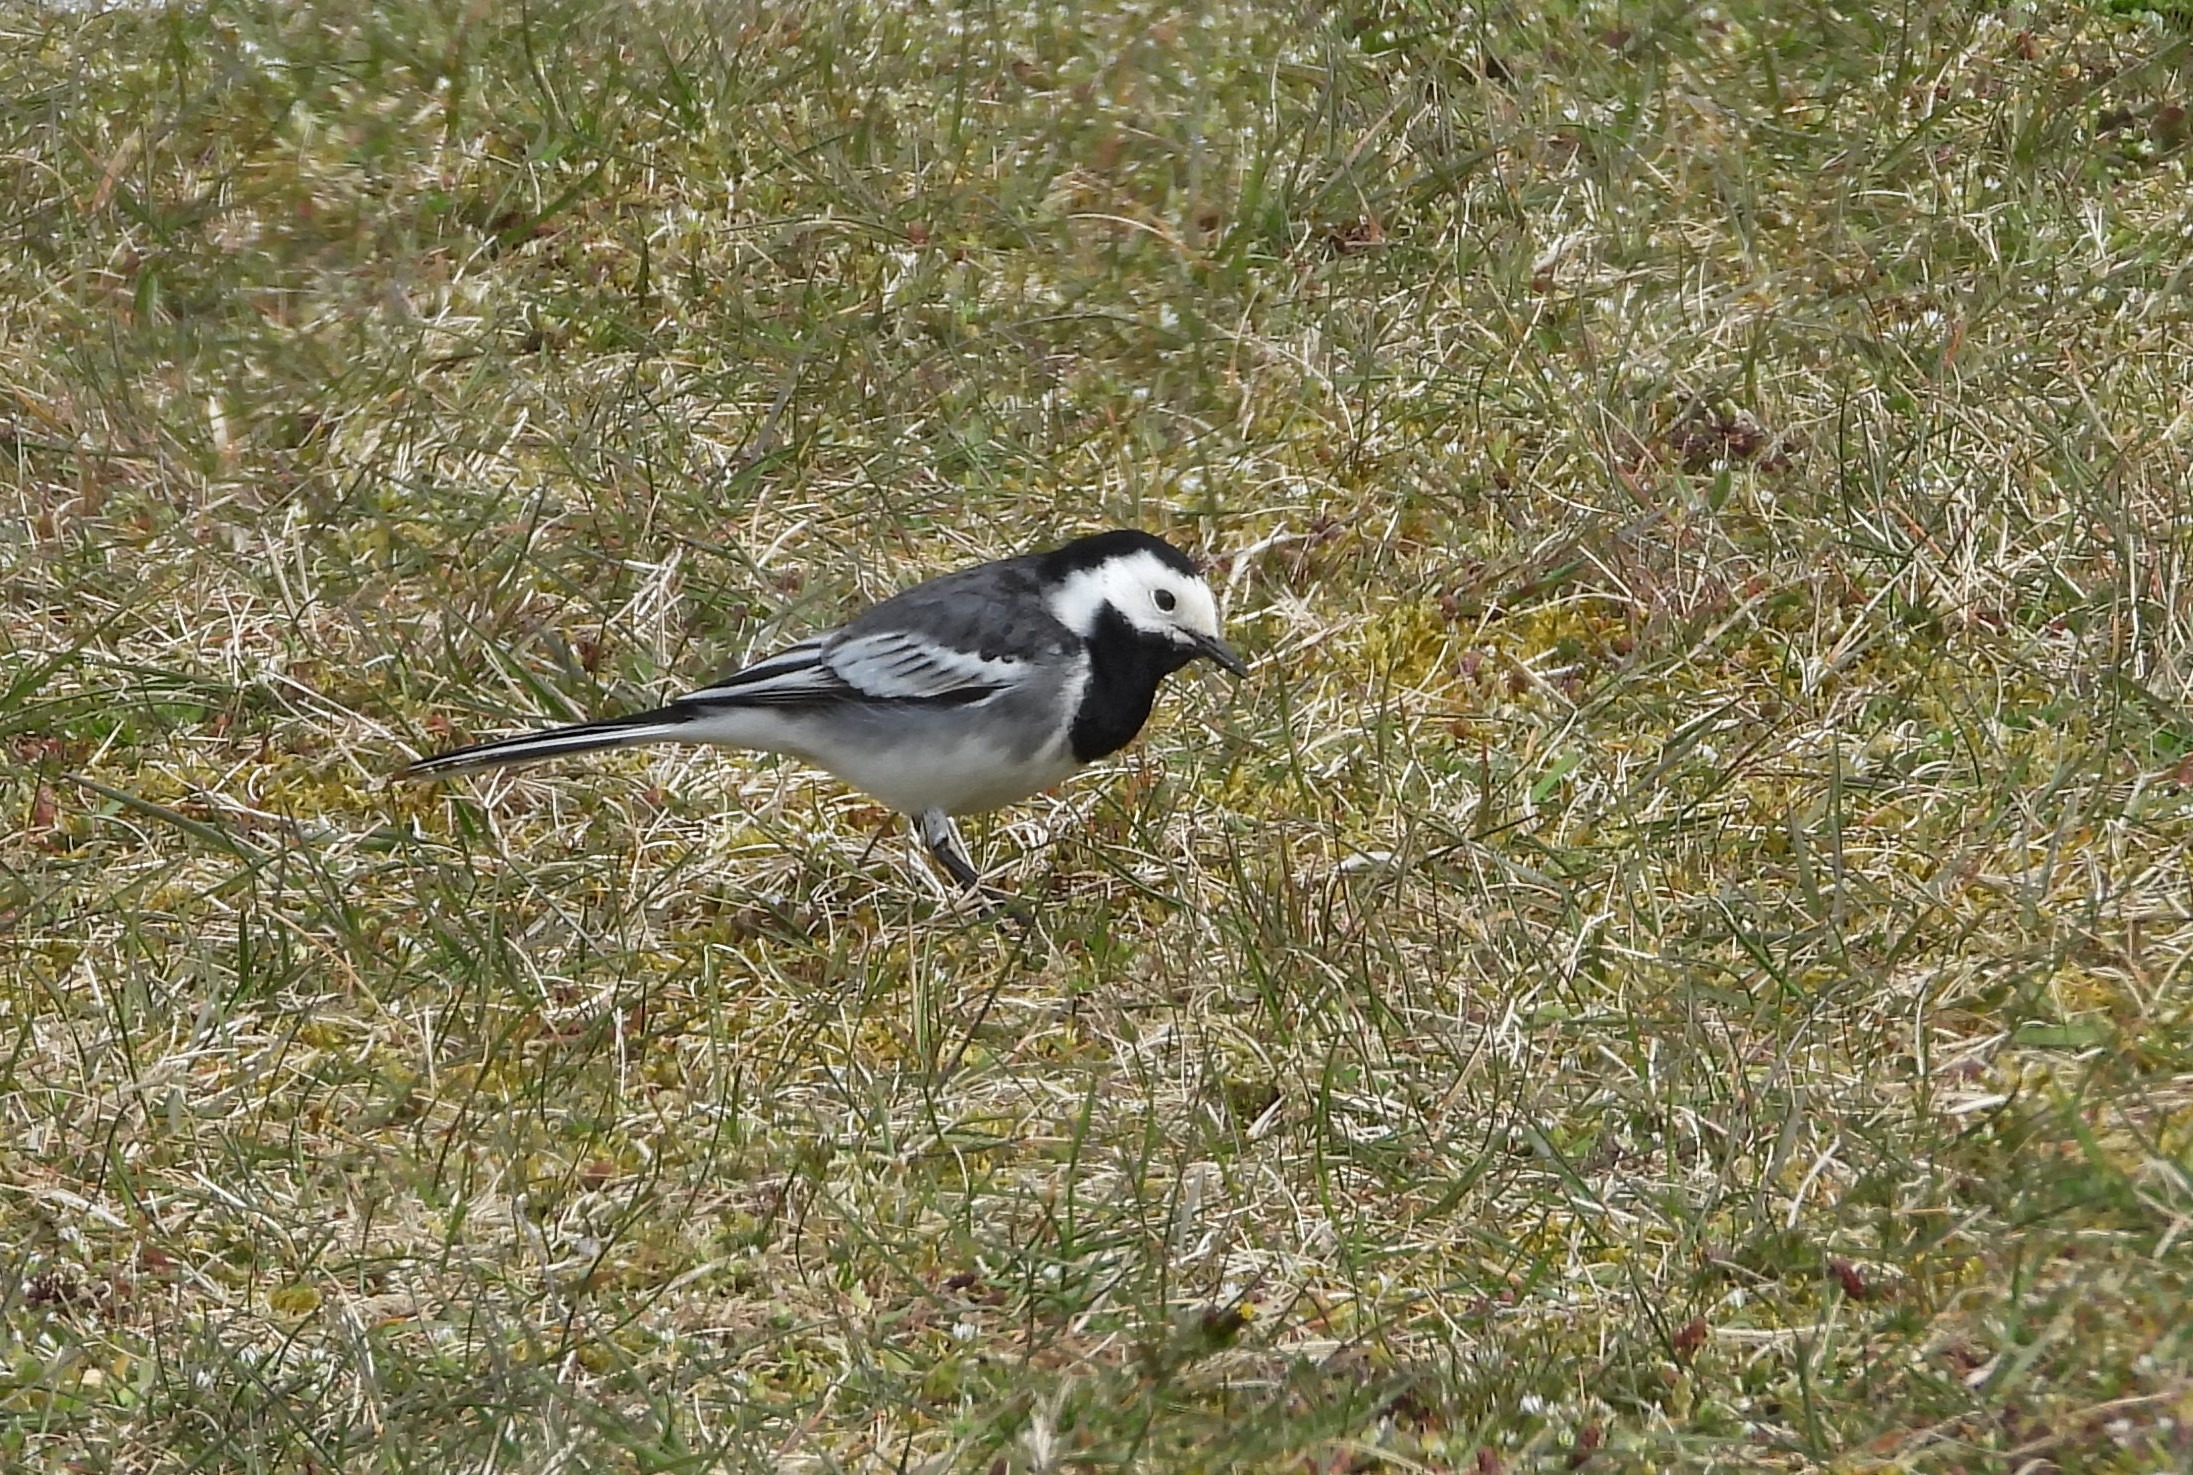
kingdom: Animalia
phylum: Chordata
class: Aves
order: Passeriformes
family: Motacillidae
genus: Motacilla
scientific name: Motacilla alba
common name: Hvid vipstjert
